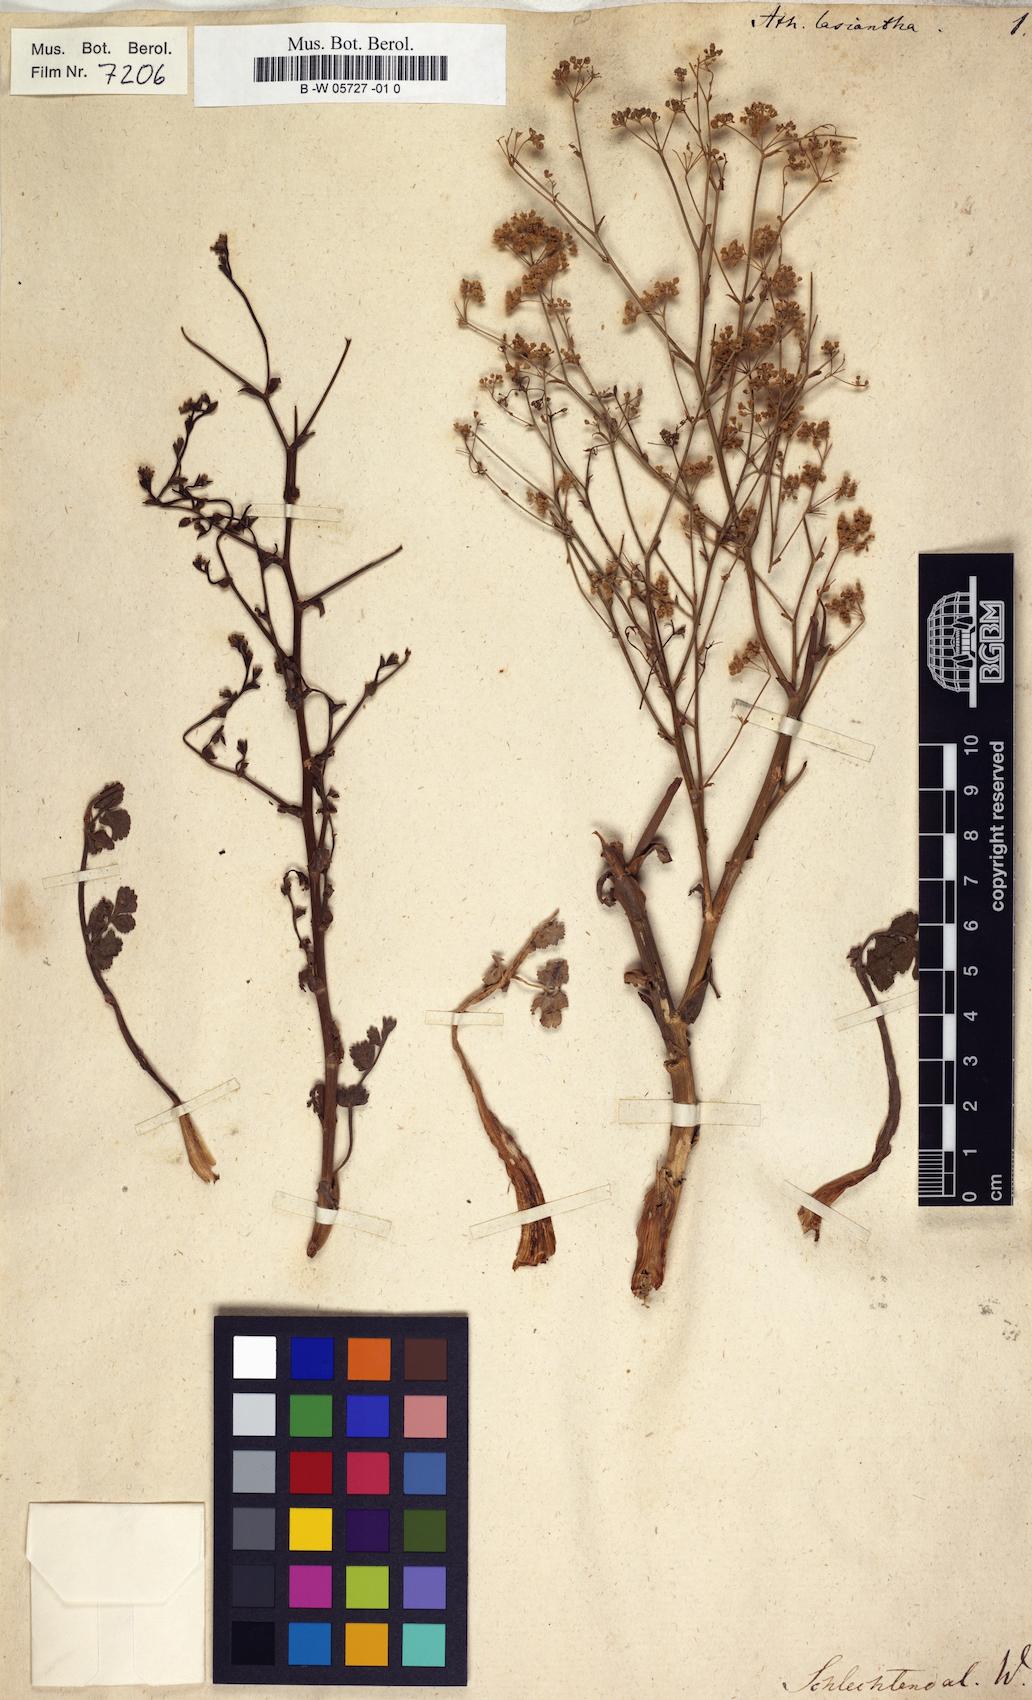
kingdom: Plantae
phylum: Tracheophyta
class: Magnoliopsida
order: Apiales
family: Apiaceae
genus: Pimpinella
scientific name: Pimpinella villosa
